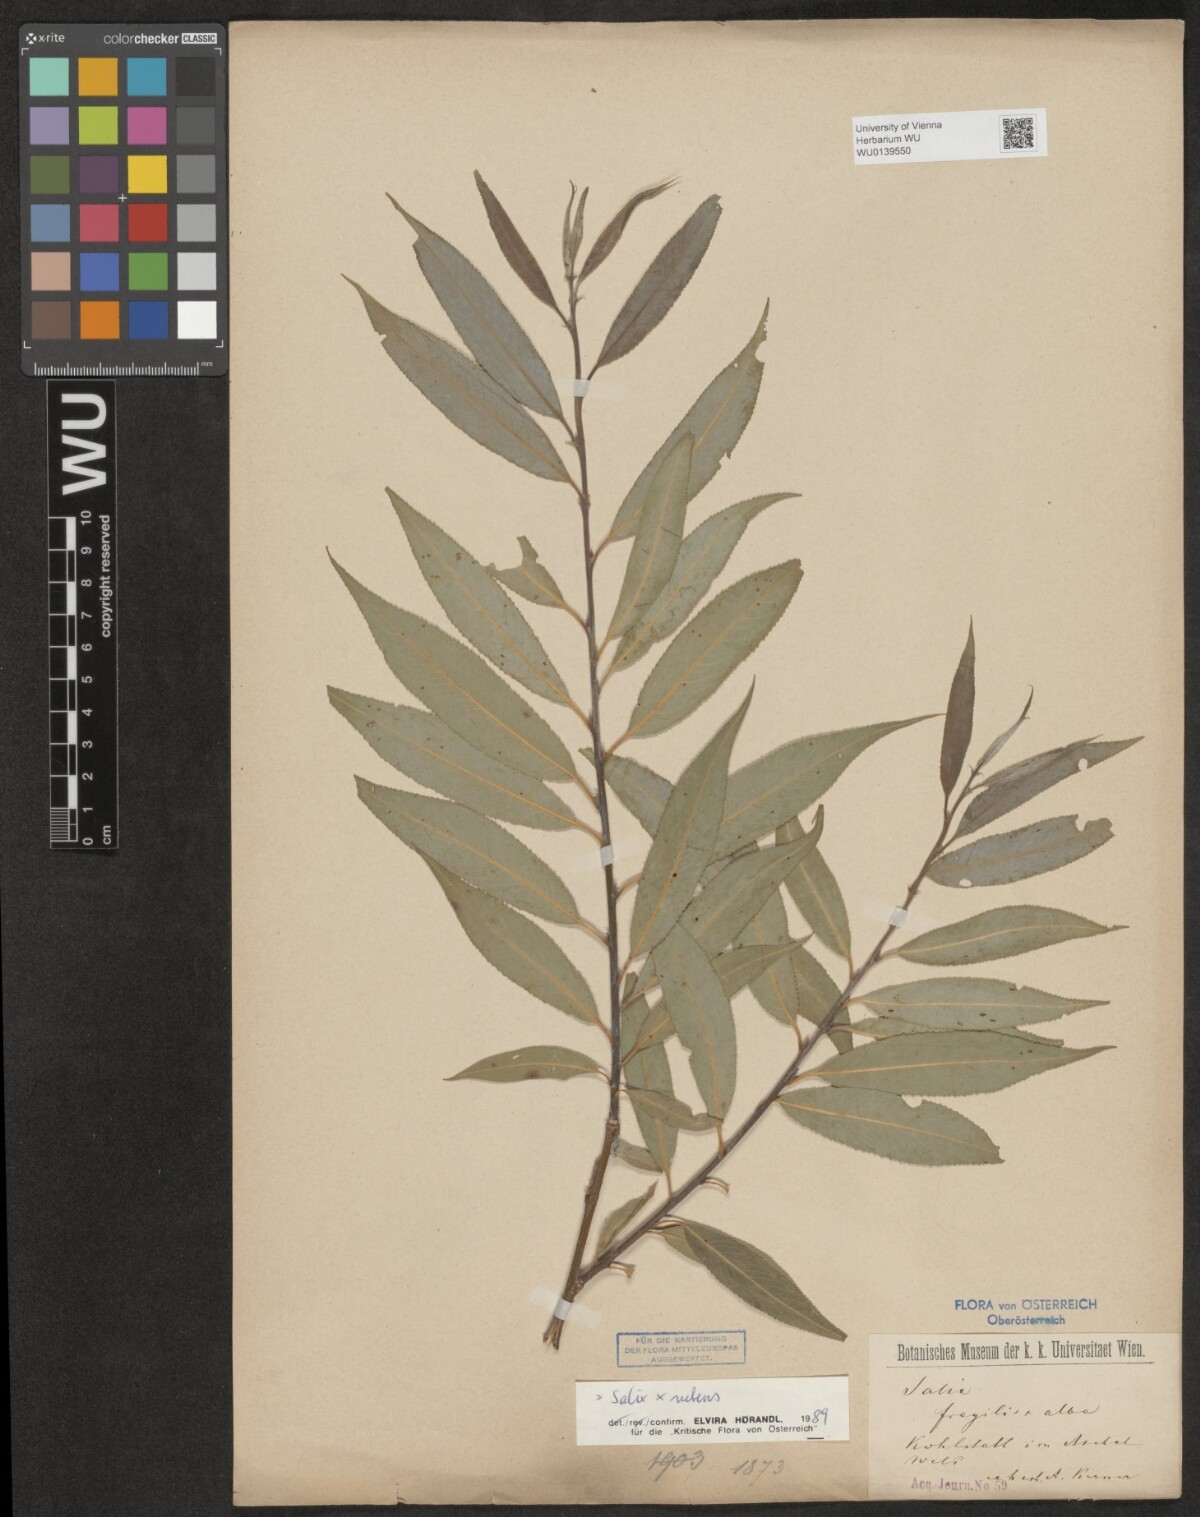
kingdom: Plantae
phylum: Tracheophyta
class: Magnoliopsida
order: Malpighiales
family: Salicaceae
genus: Salix
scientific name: Salix rubens
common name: Hybrid crack willow
